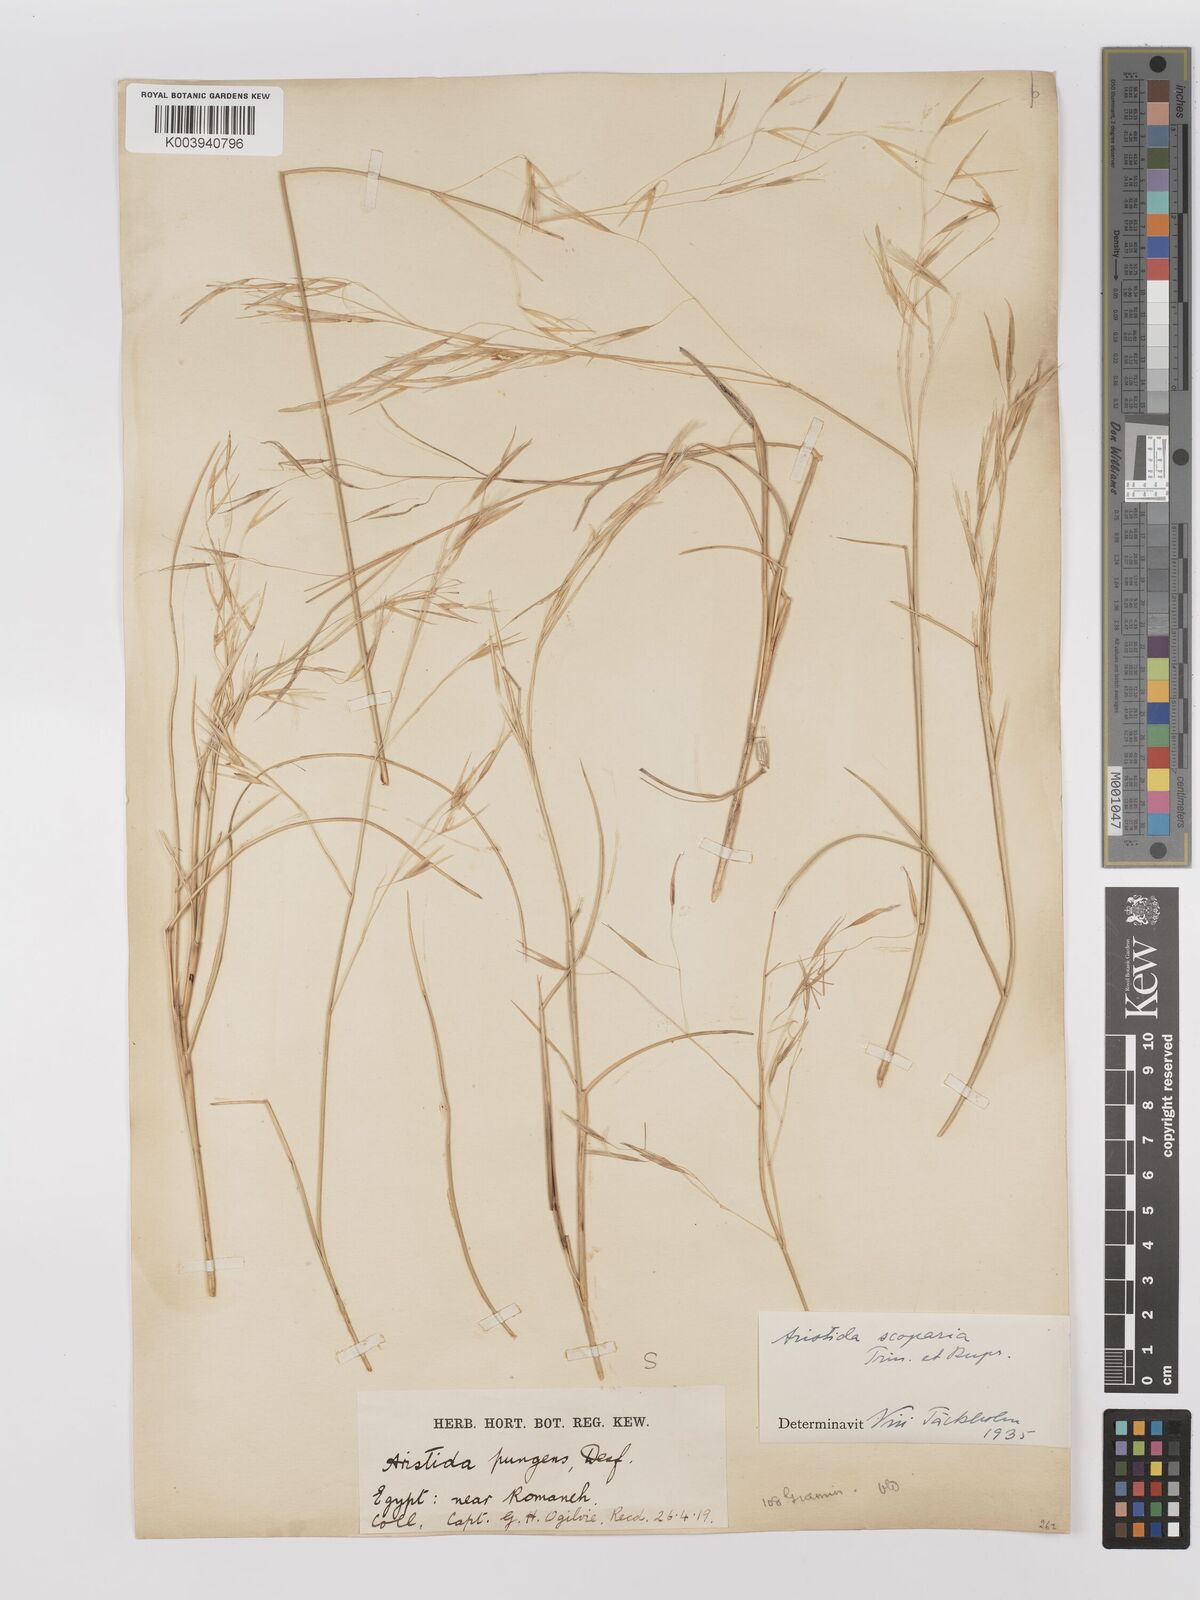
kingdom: Plantae
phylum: Tracheophyta
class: Liliopsida
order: Poales
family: Poaceae
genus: Stipagrostis
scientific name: Stipagrostis scoparia
